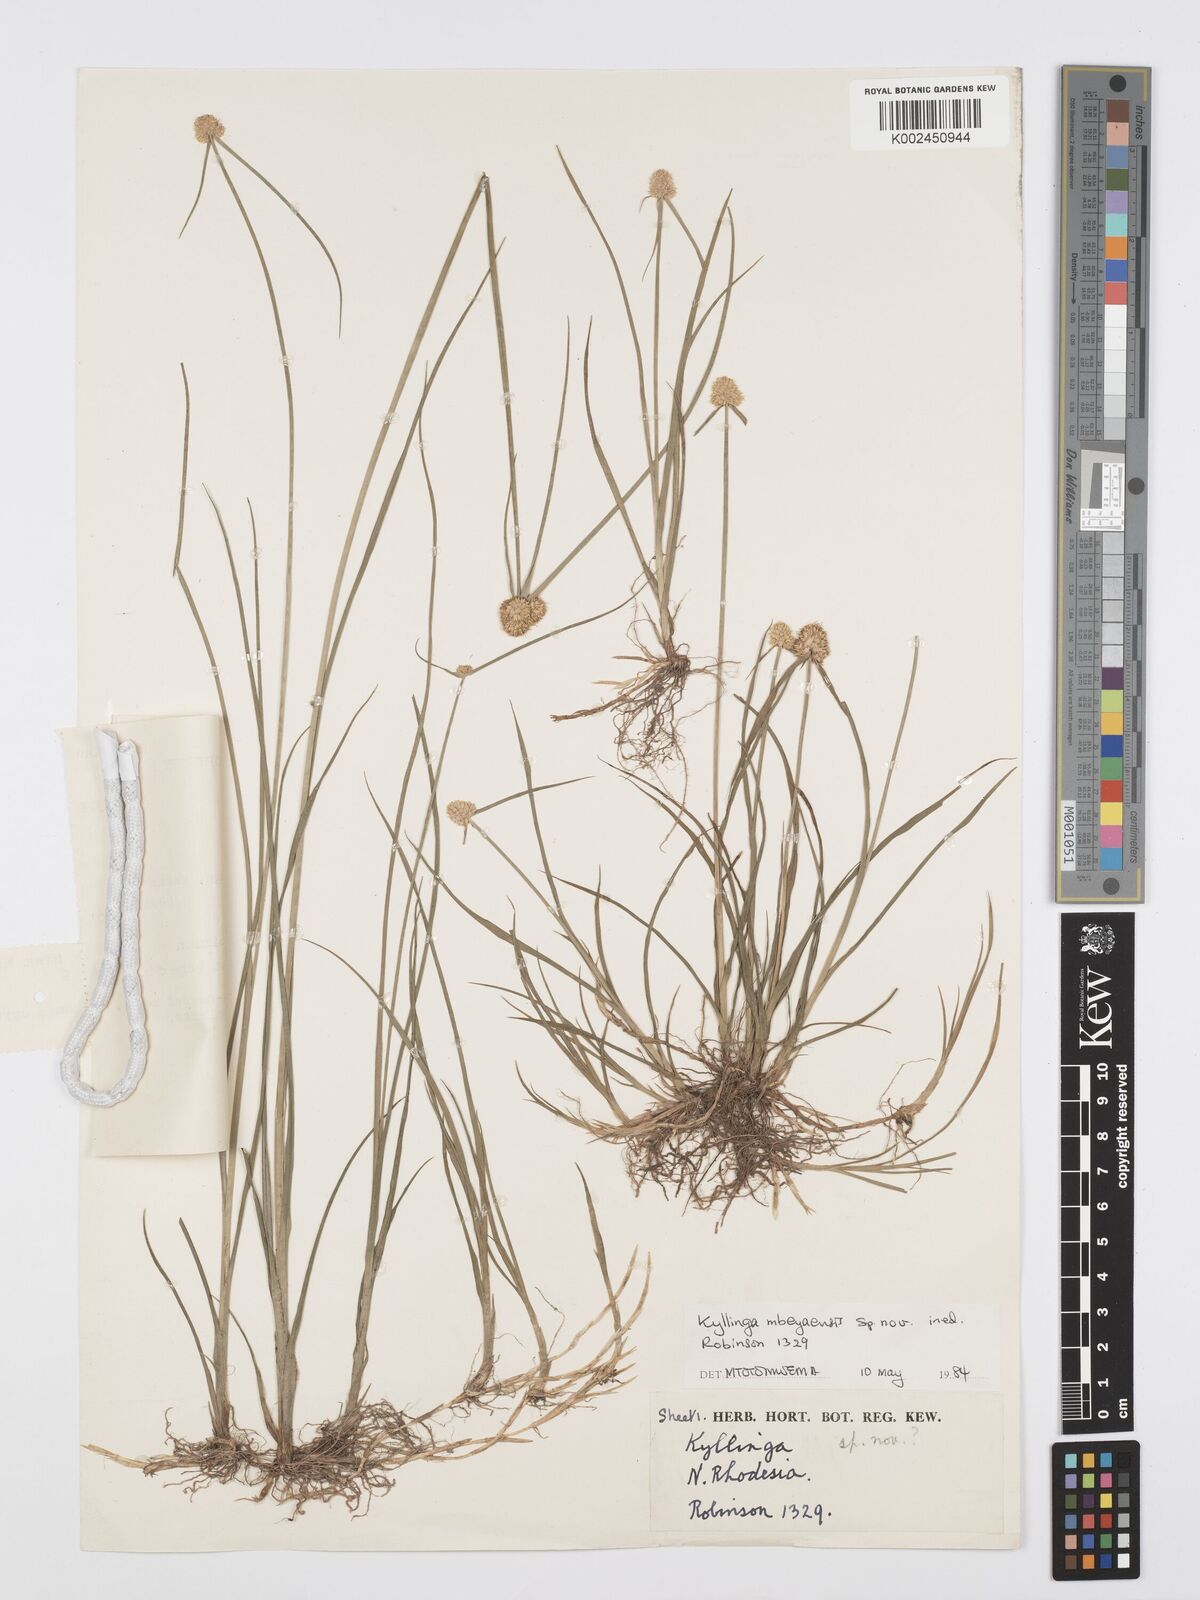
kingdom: Plantae
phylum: Tracheophyta
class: Liliopsida
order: Poales
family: Cyperaceae
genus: Cyperus
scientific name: Cyperus
